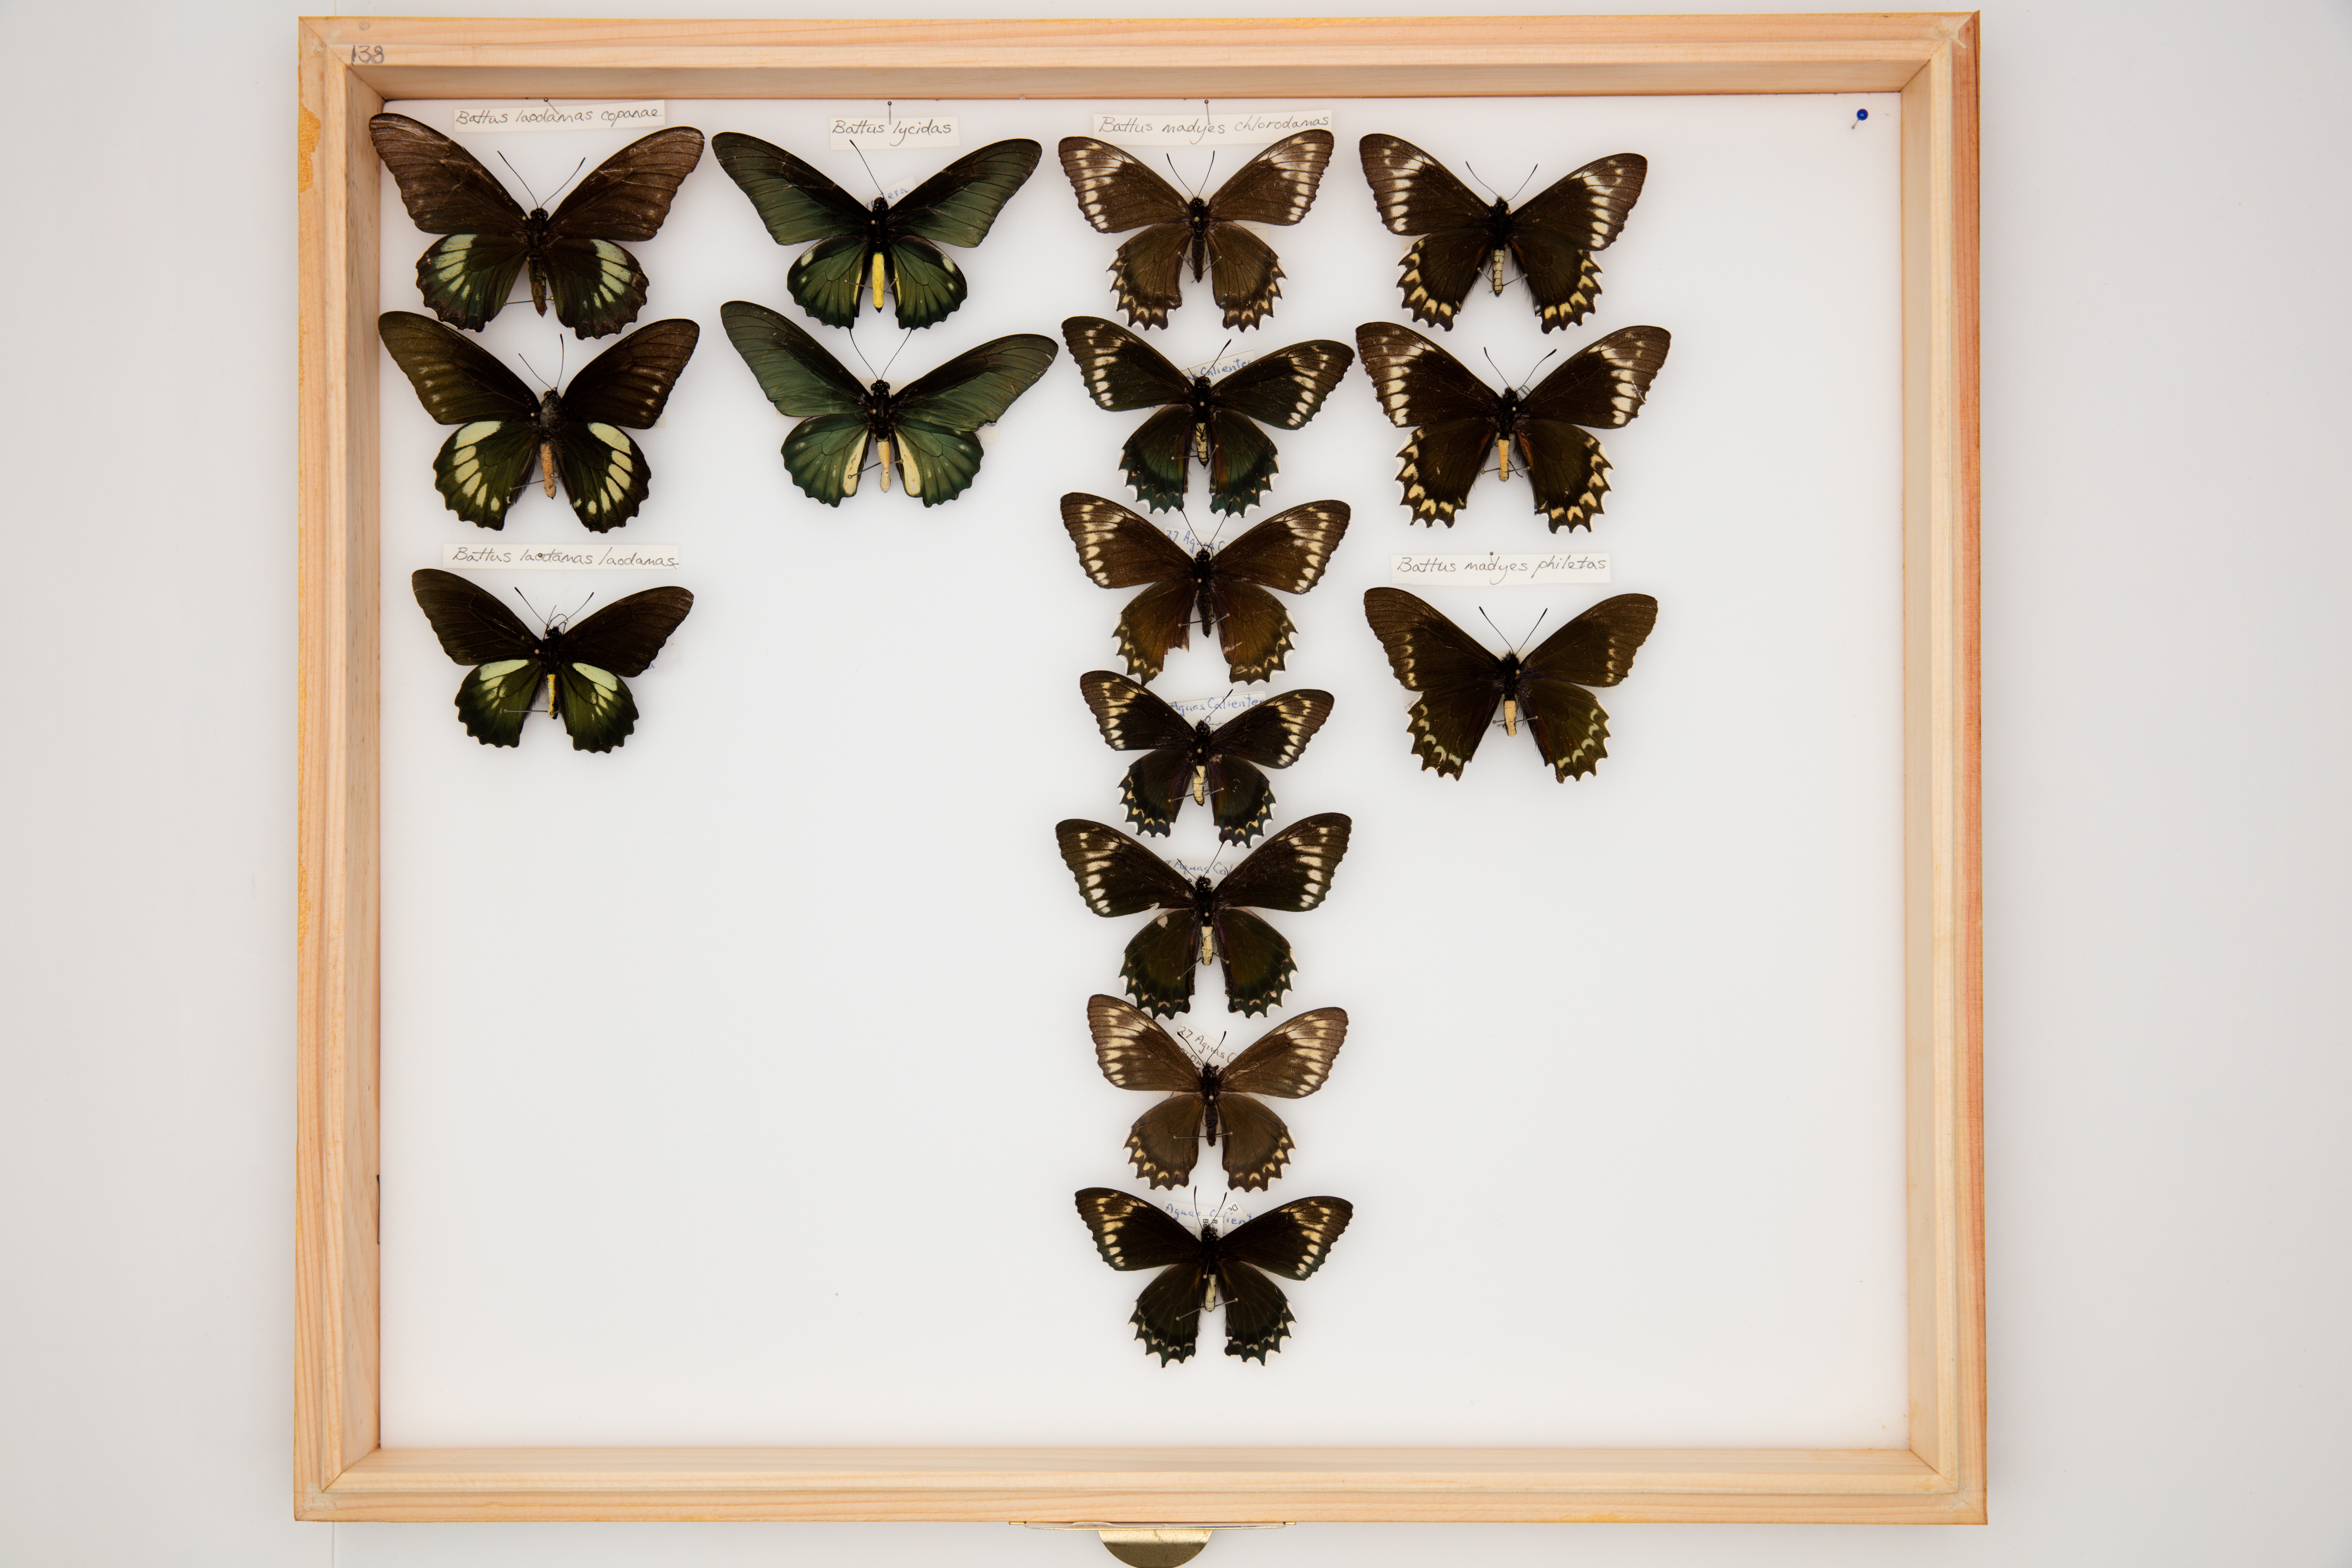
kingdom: Animalia
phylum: Arthropoda
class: Insecta
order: Lepidoptera
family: Papilionidae
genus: Battus
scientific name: Battus madyes
